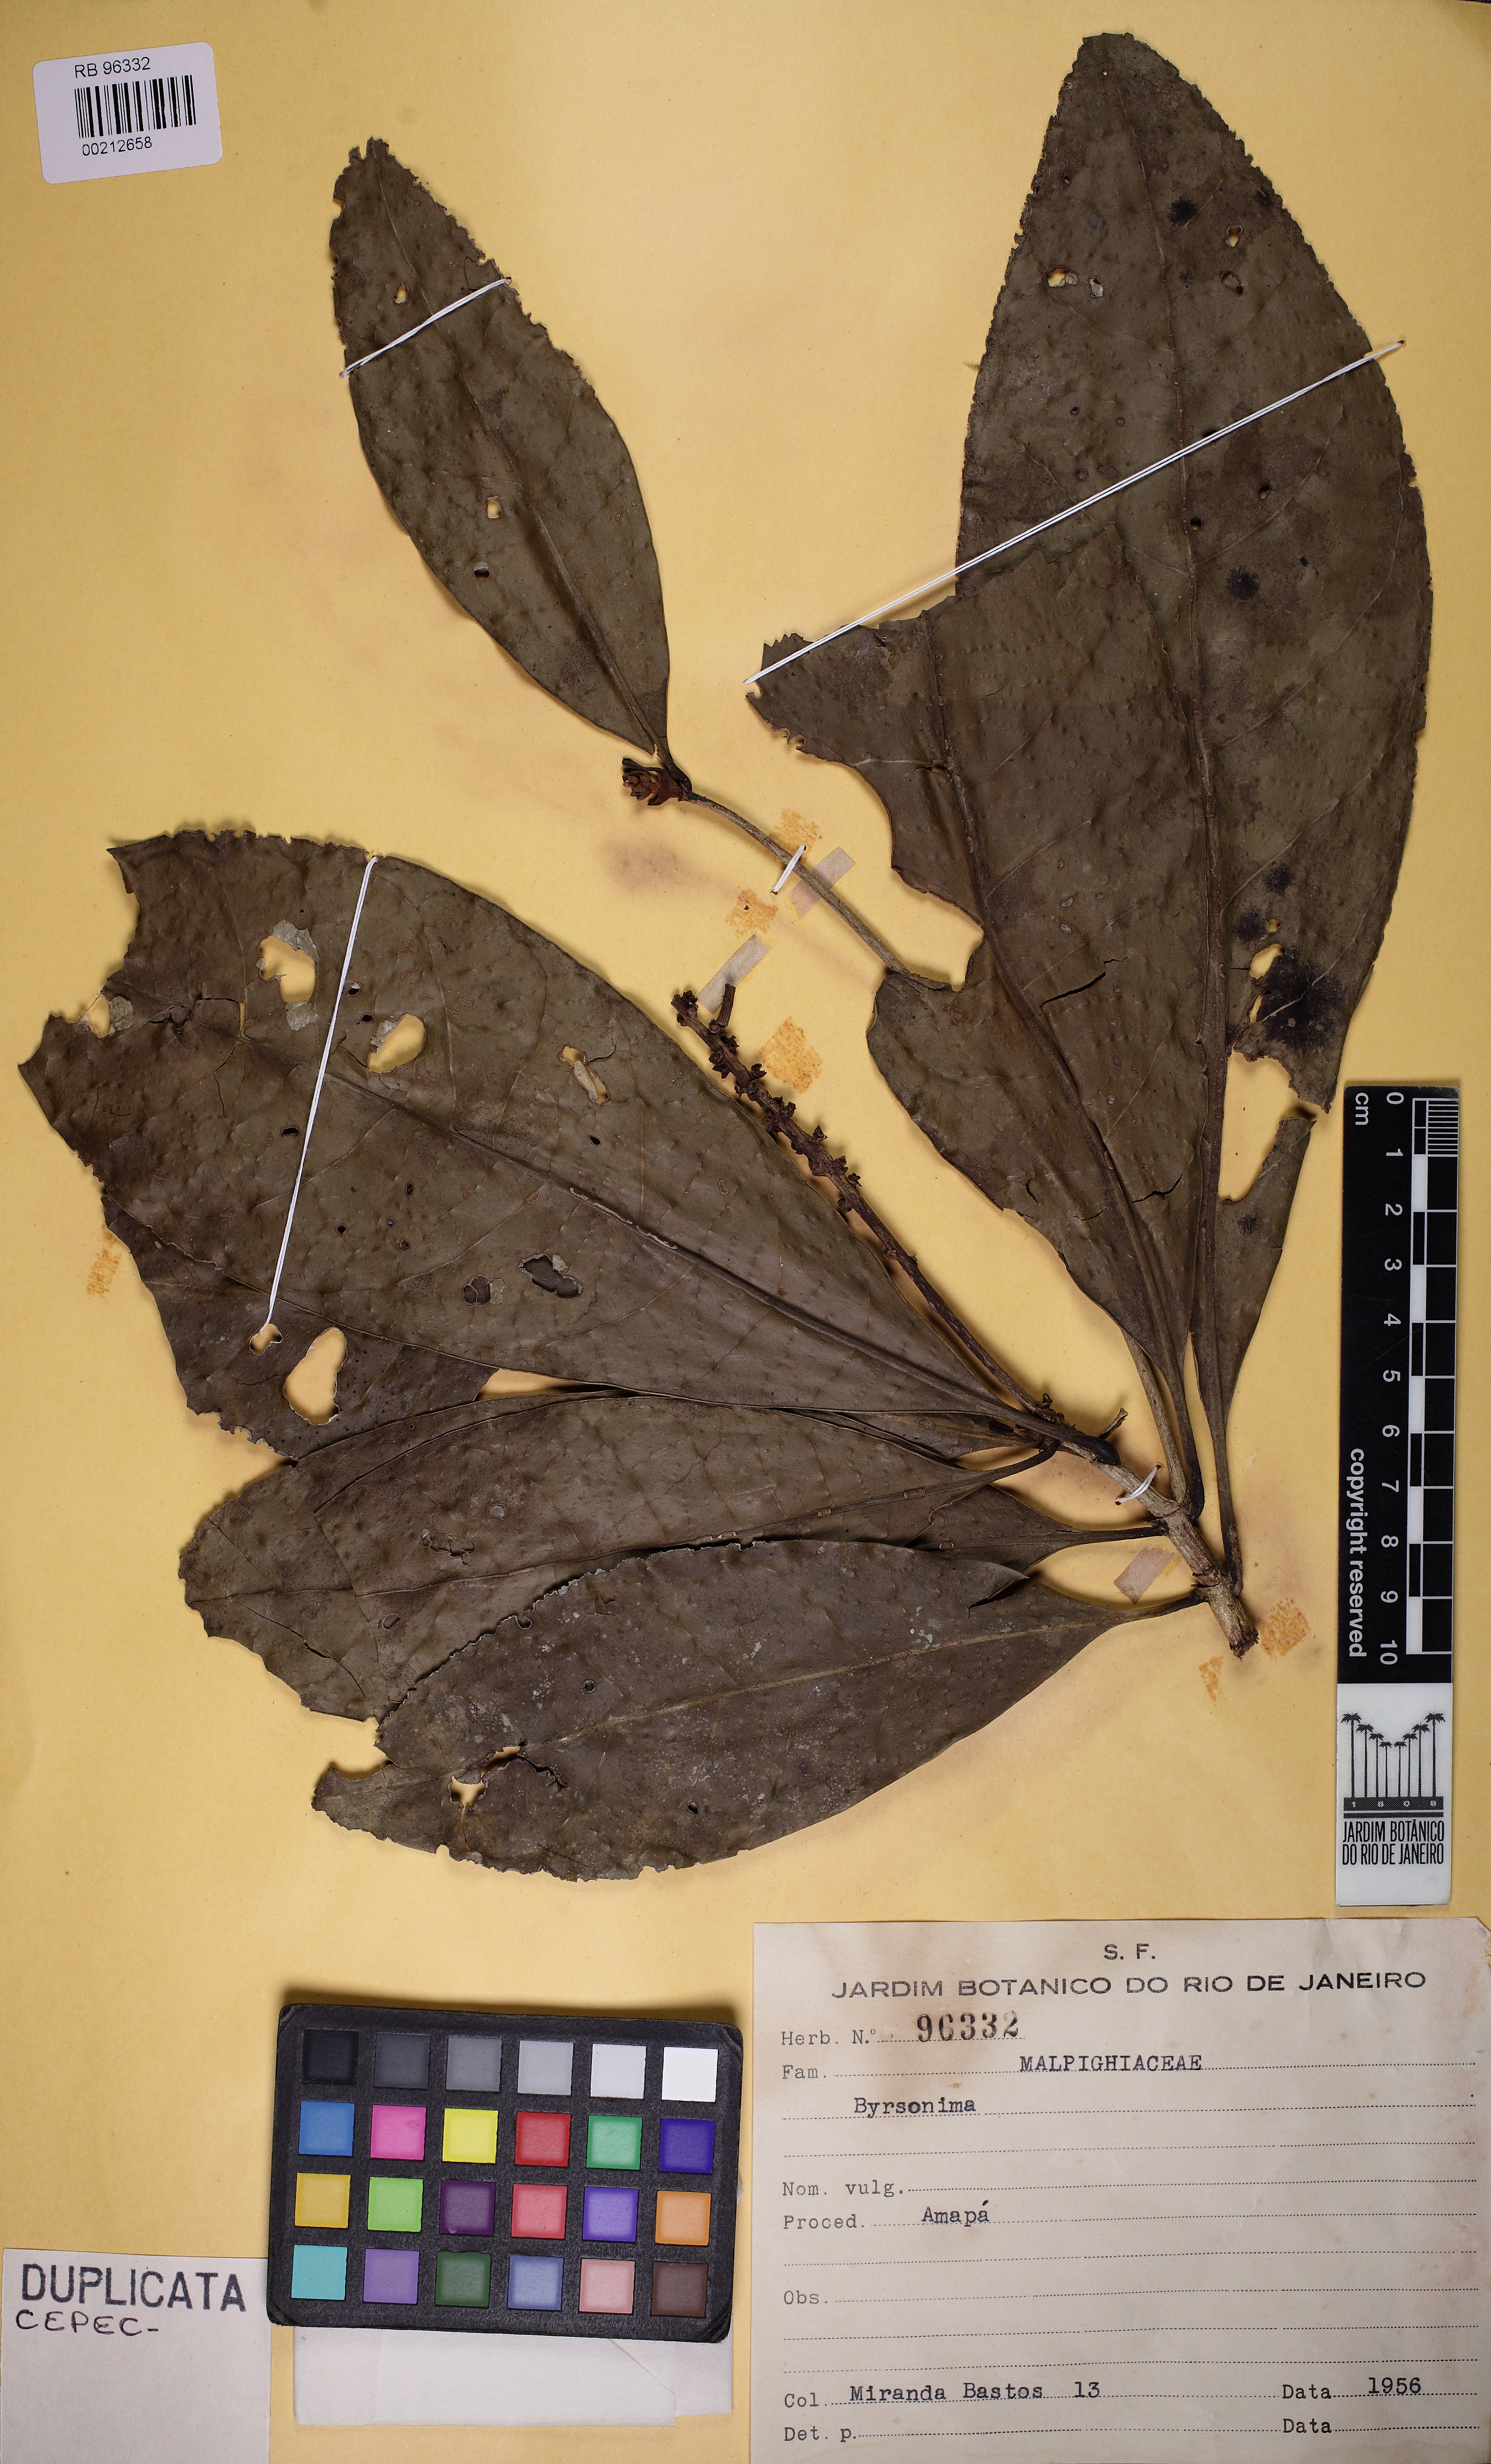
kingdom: Plantae
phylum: Tracheophyta
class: Magnoliopsida
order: Malpighiales
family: Malpighiaceae
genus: Byrsonima
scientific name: Byrsonima
